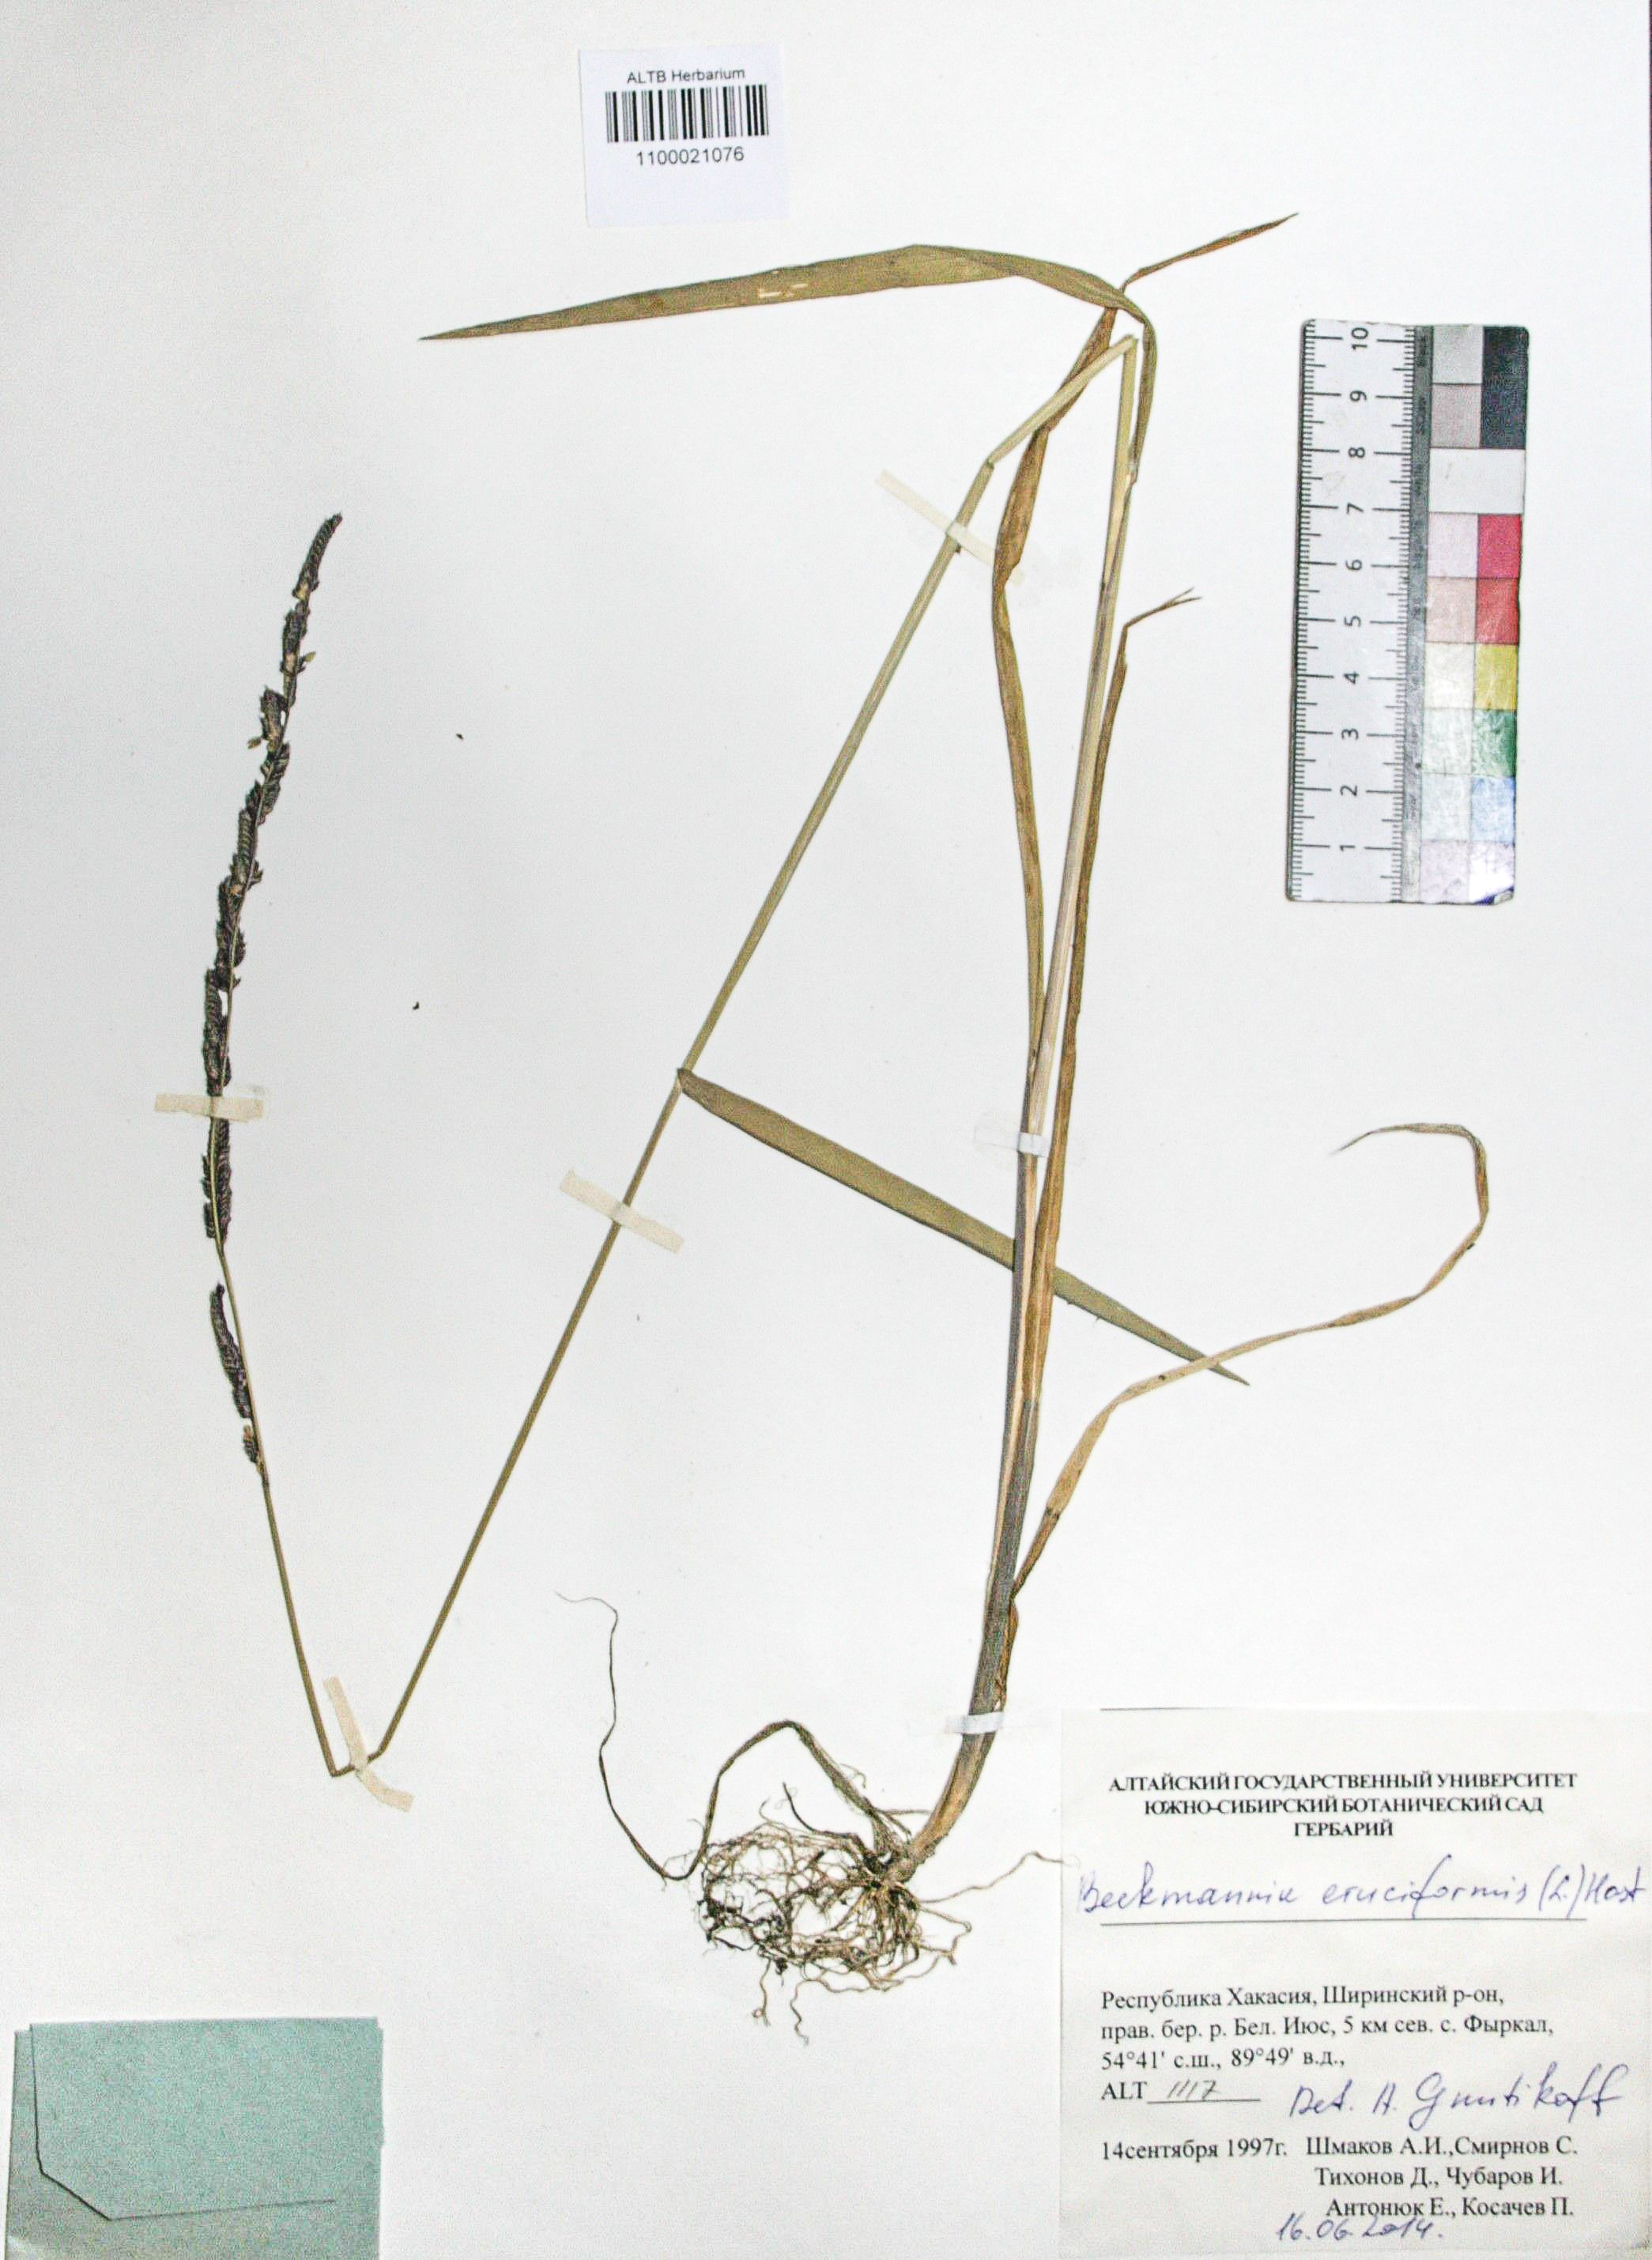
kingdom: Plantae
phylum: Tracheophyta
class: Liliopsida
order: Poales
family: Poaceae
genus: Beckmannia
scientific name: Beckmannia eruciformis
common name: European slough-grass
